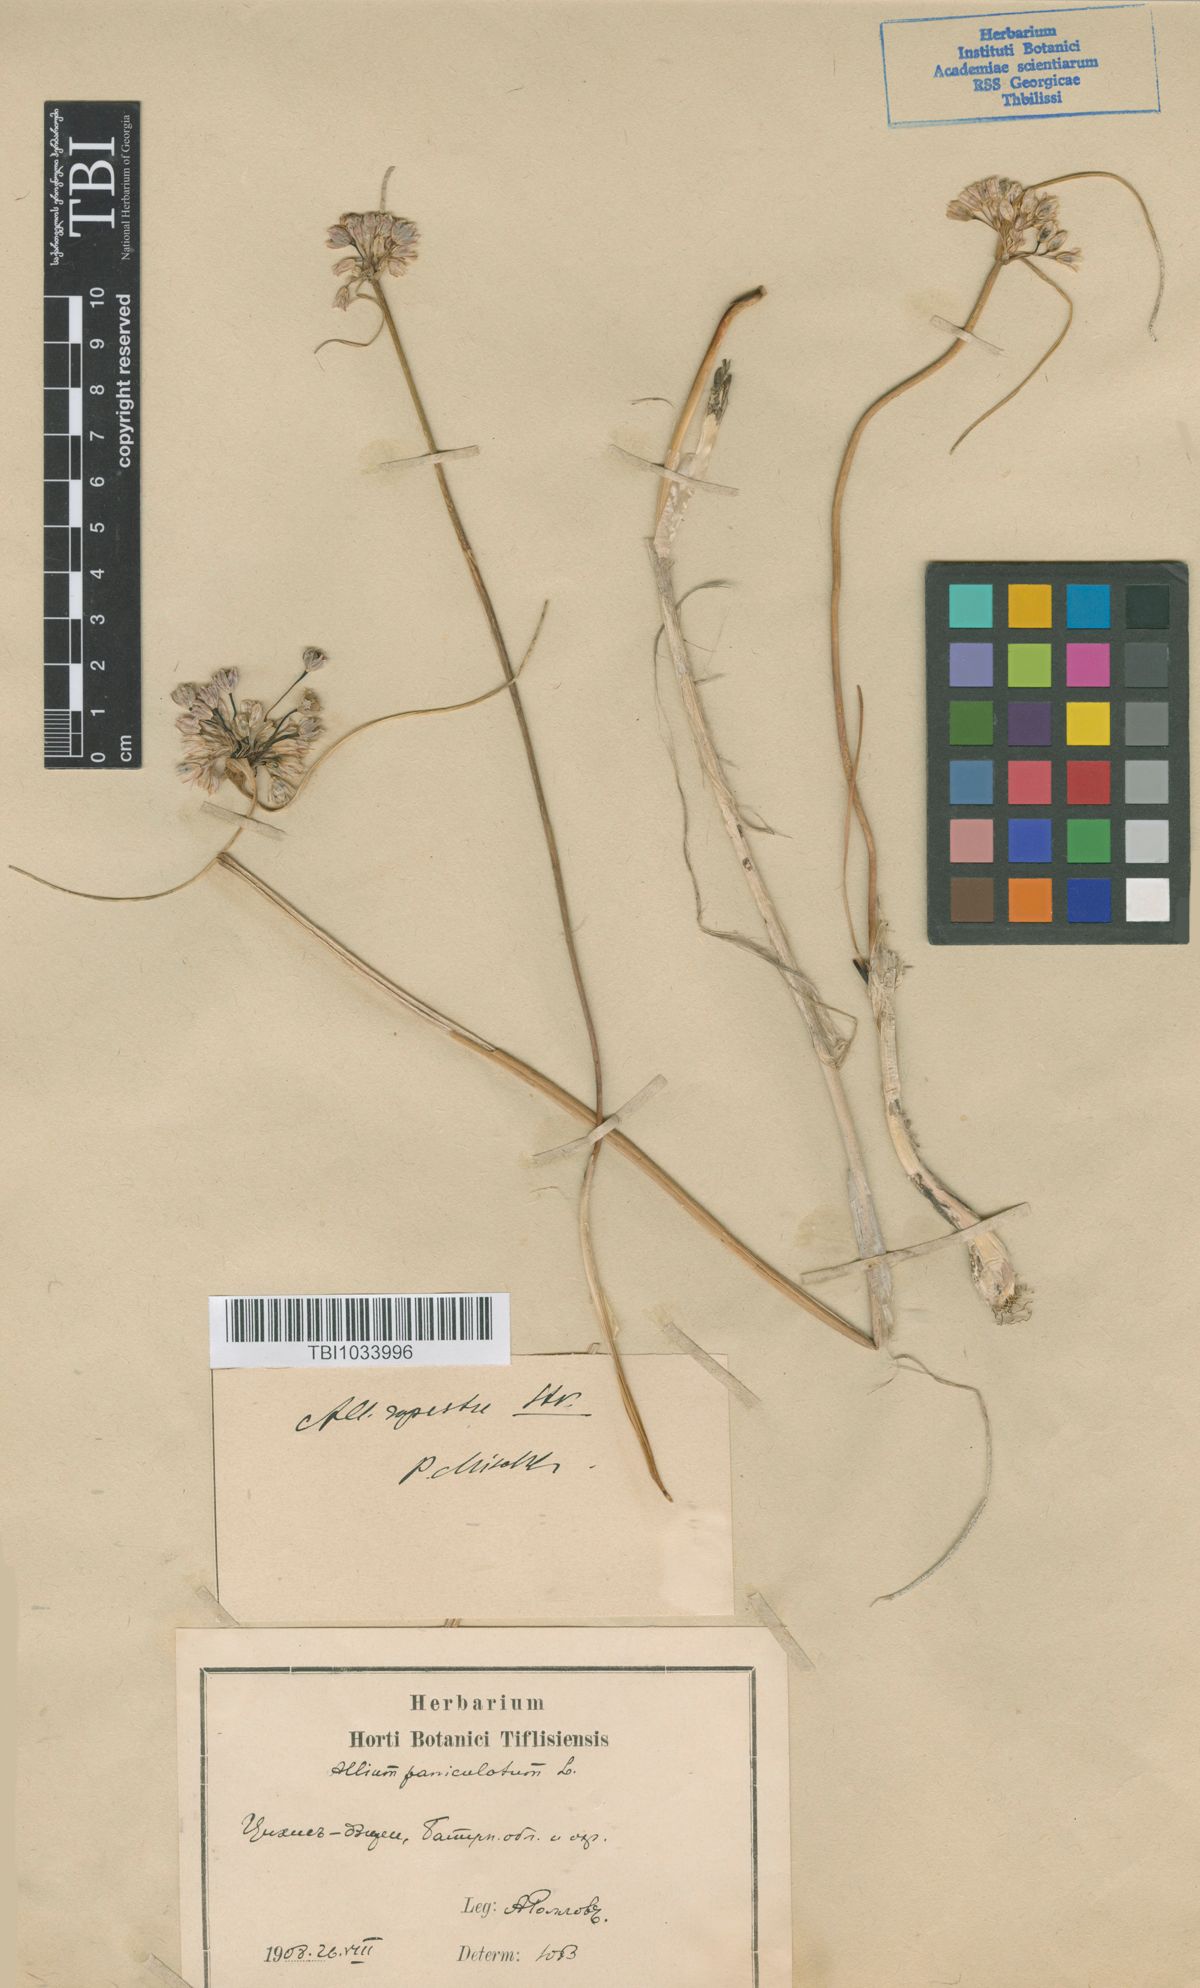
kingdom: Plantae
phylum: Tracheophyta
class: Liliopsida
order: Asparagales
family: Amaryllidaceae
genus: Allium
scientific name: Allium rupestre
